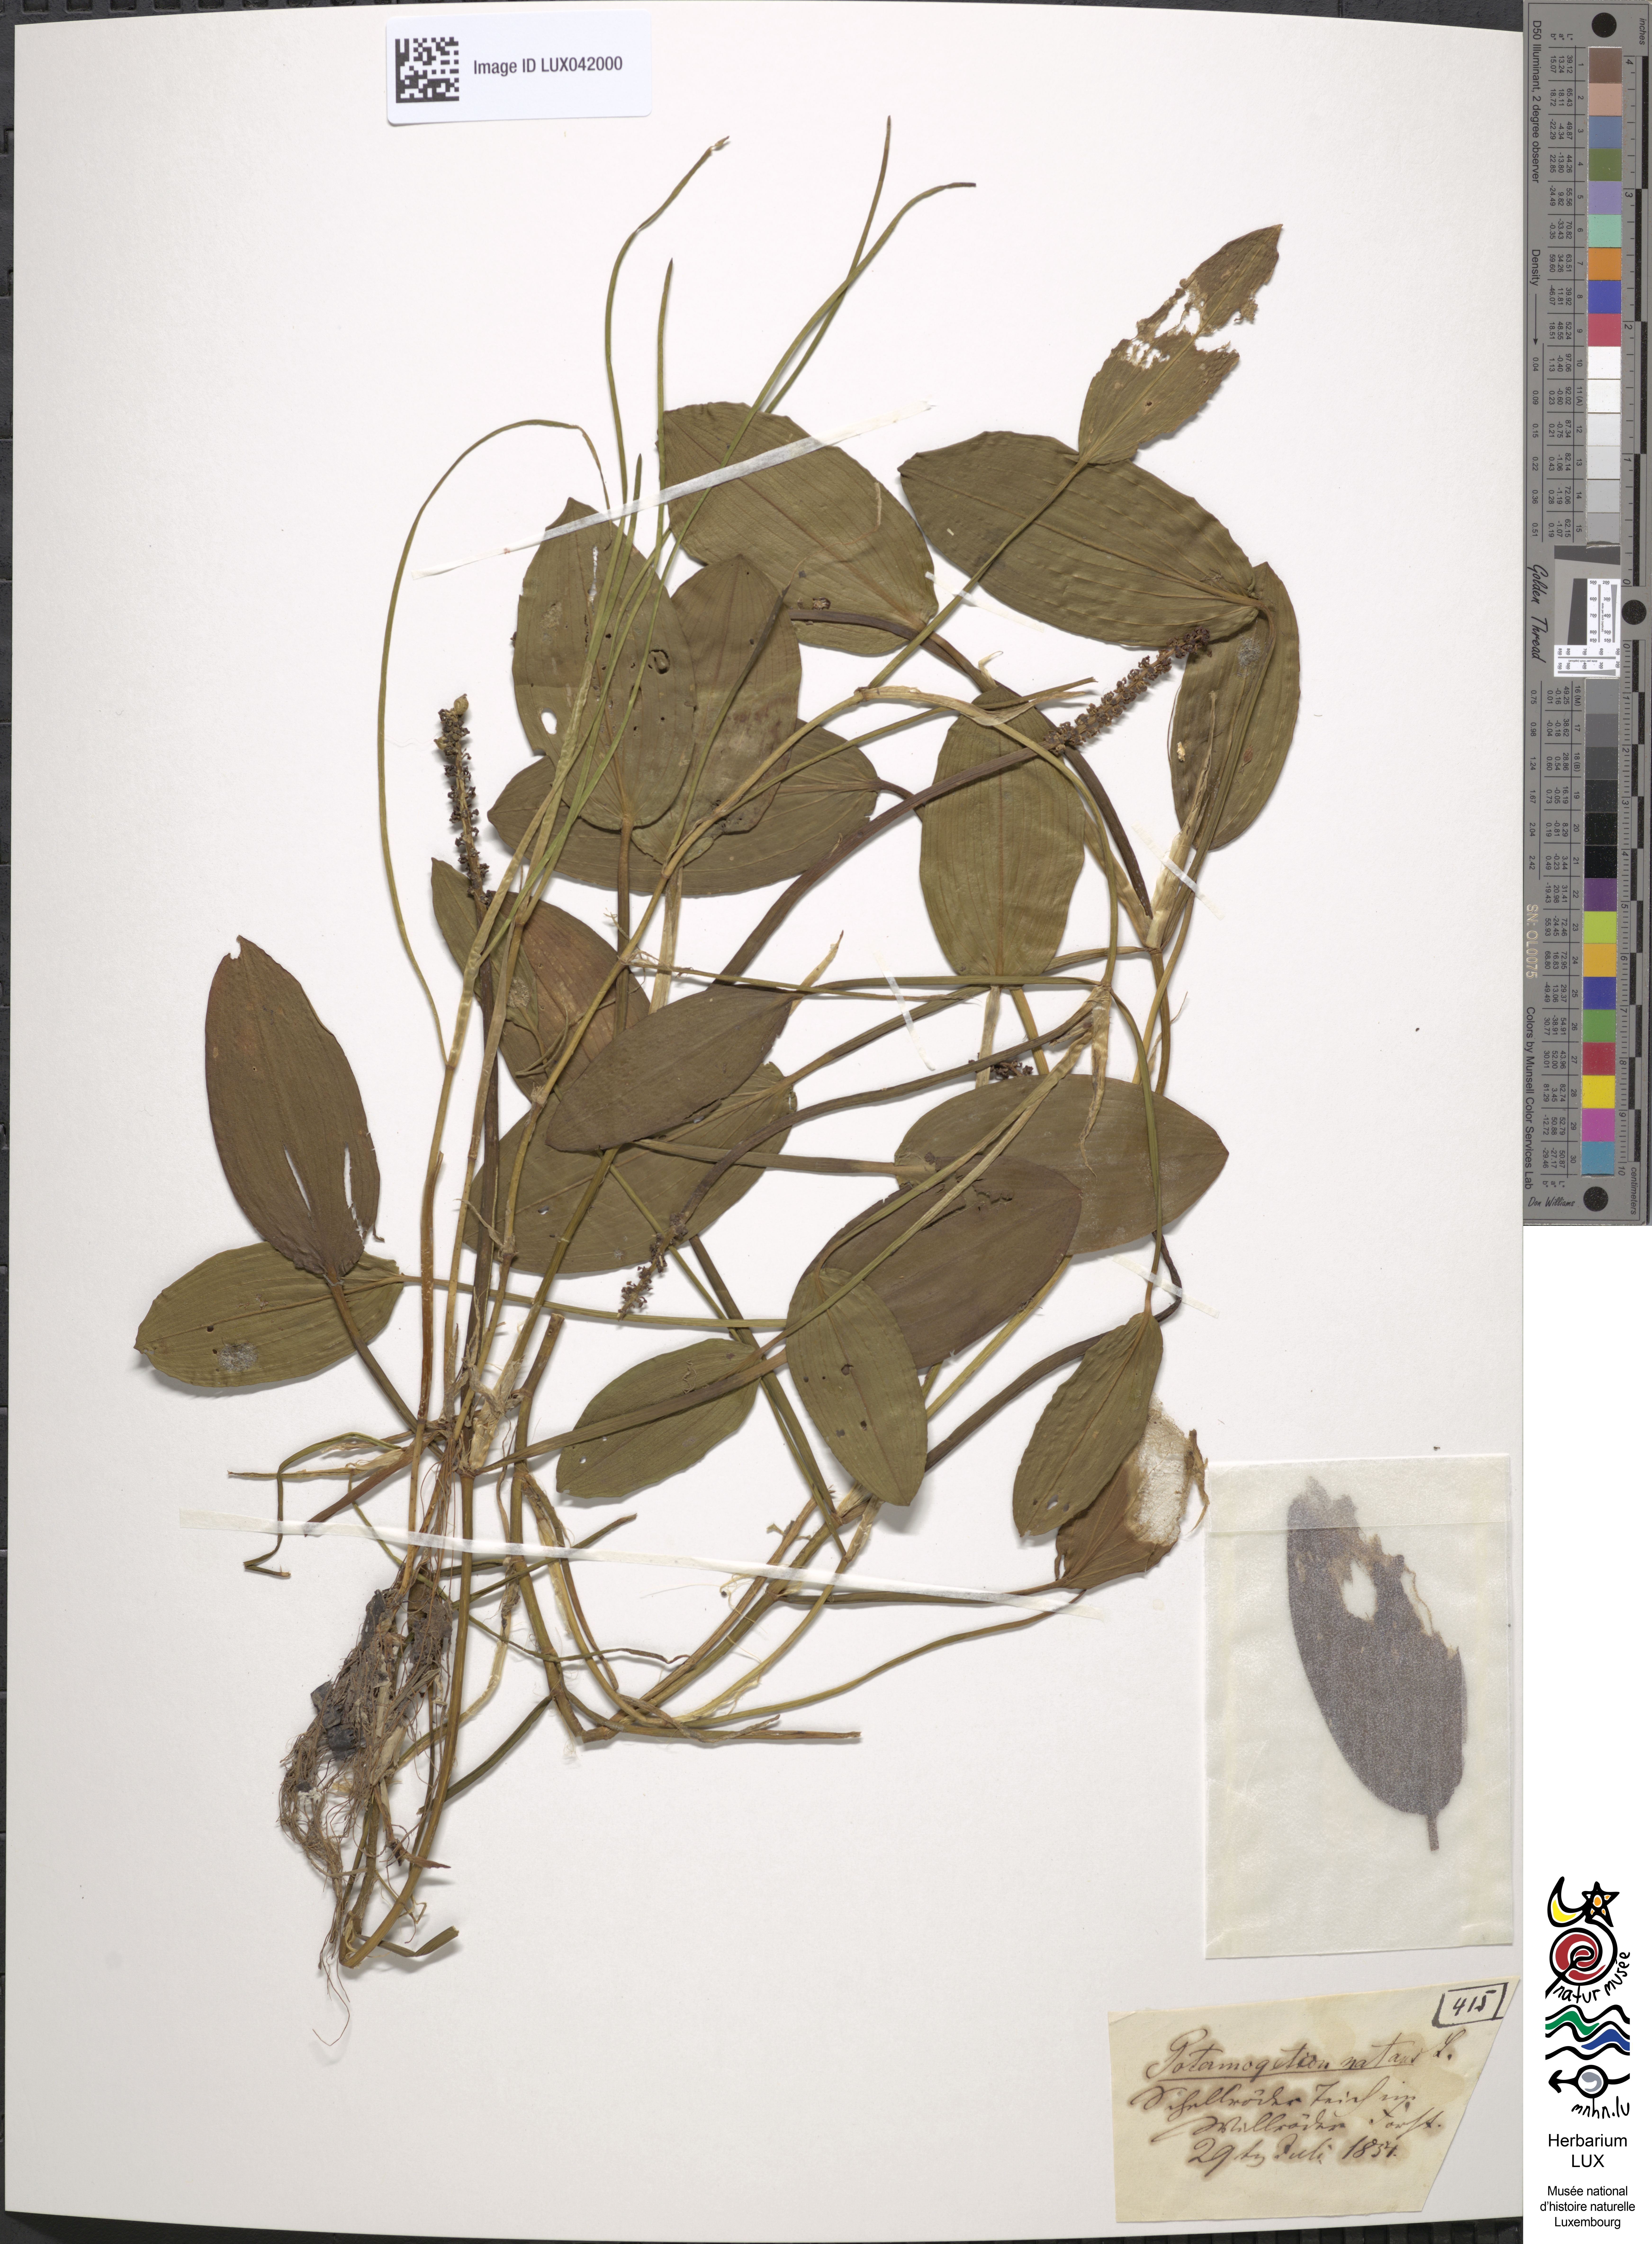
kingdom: Plantae
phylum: Tracheophyta
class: Liliopsida
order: Alismatales
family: Potamogetonaceae
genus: Potamogeton
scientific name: Potamogeton natans
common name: Broad-leaved pondweed
